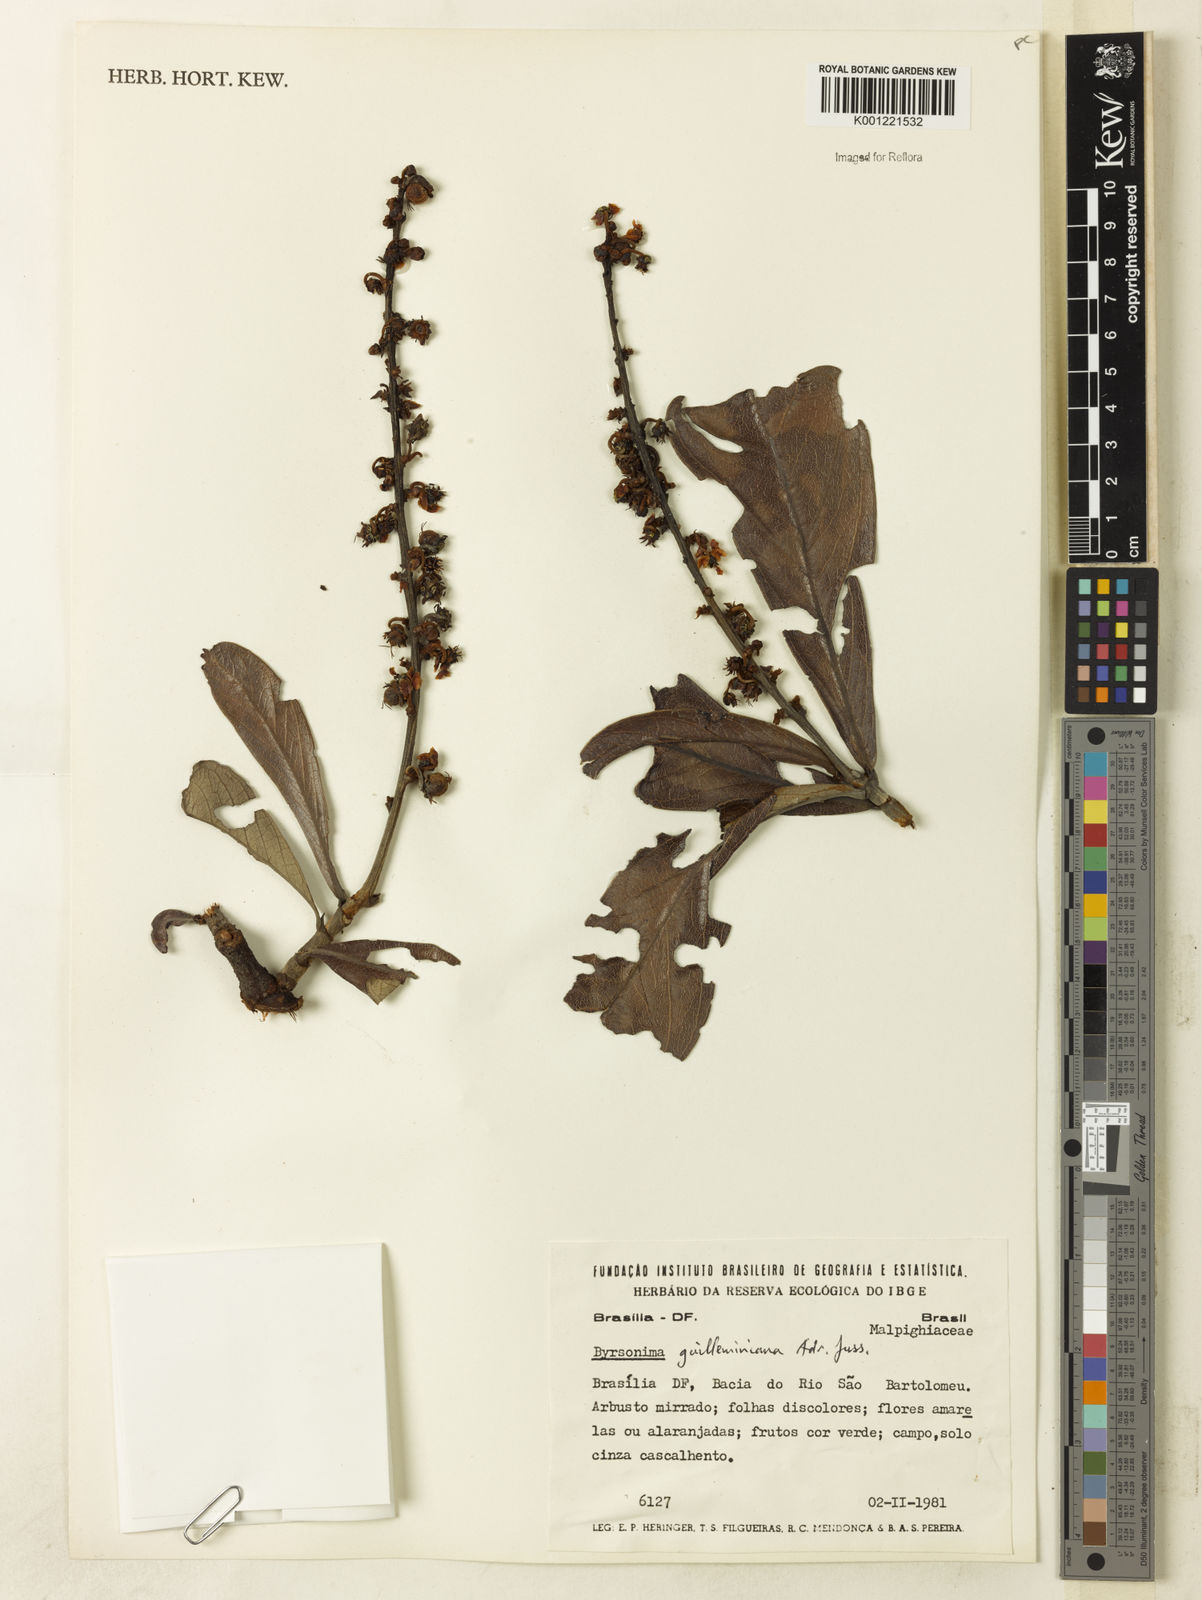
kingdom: Plantae
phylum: Tracheophyta
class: Magnoliopsida
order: Malpighiales
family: Malpighiaceae
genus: Byrsonima
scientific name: Byrsonima guilleminiana
